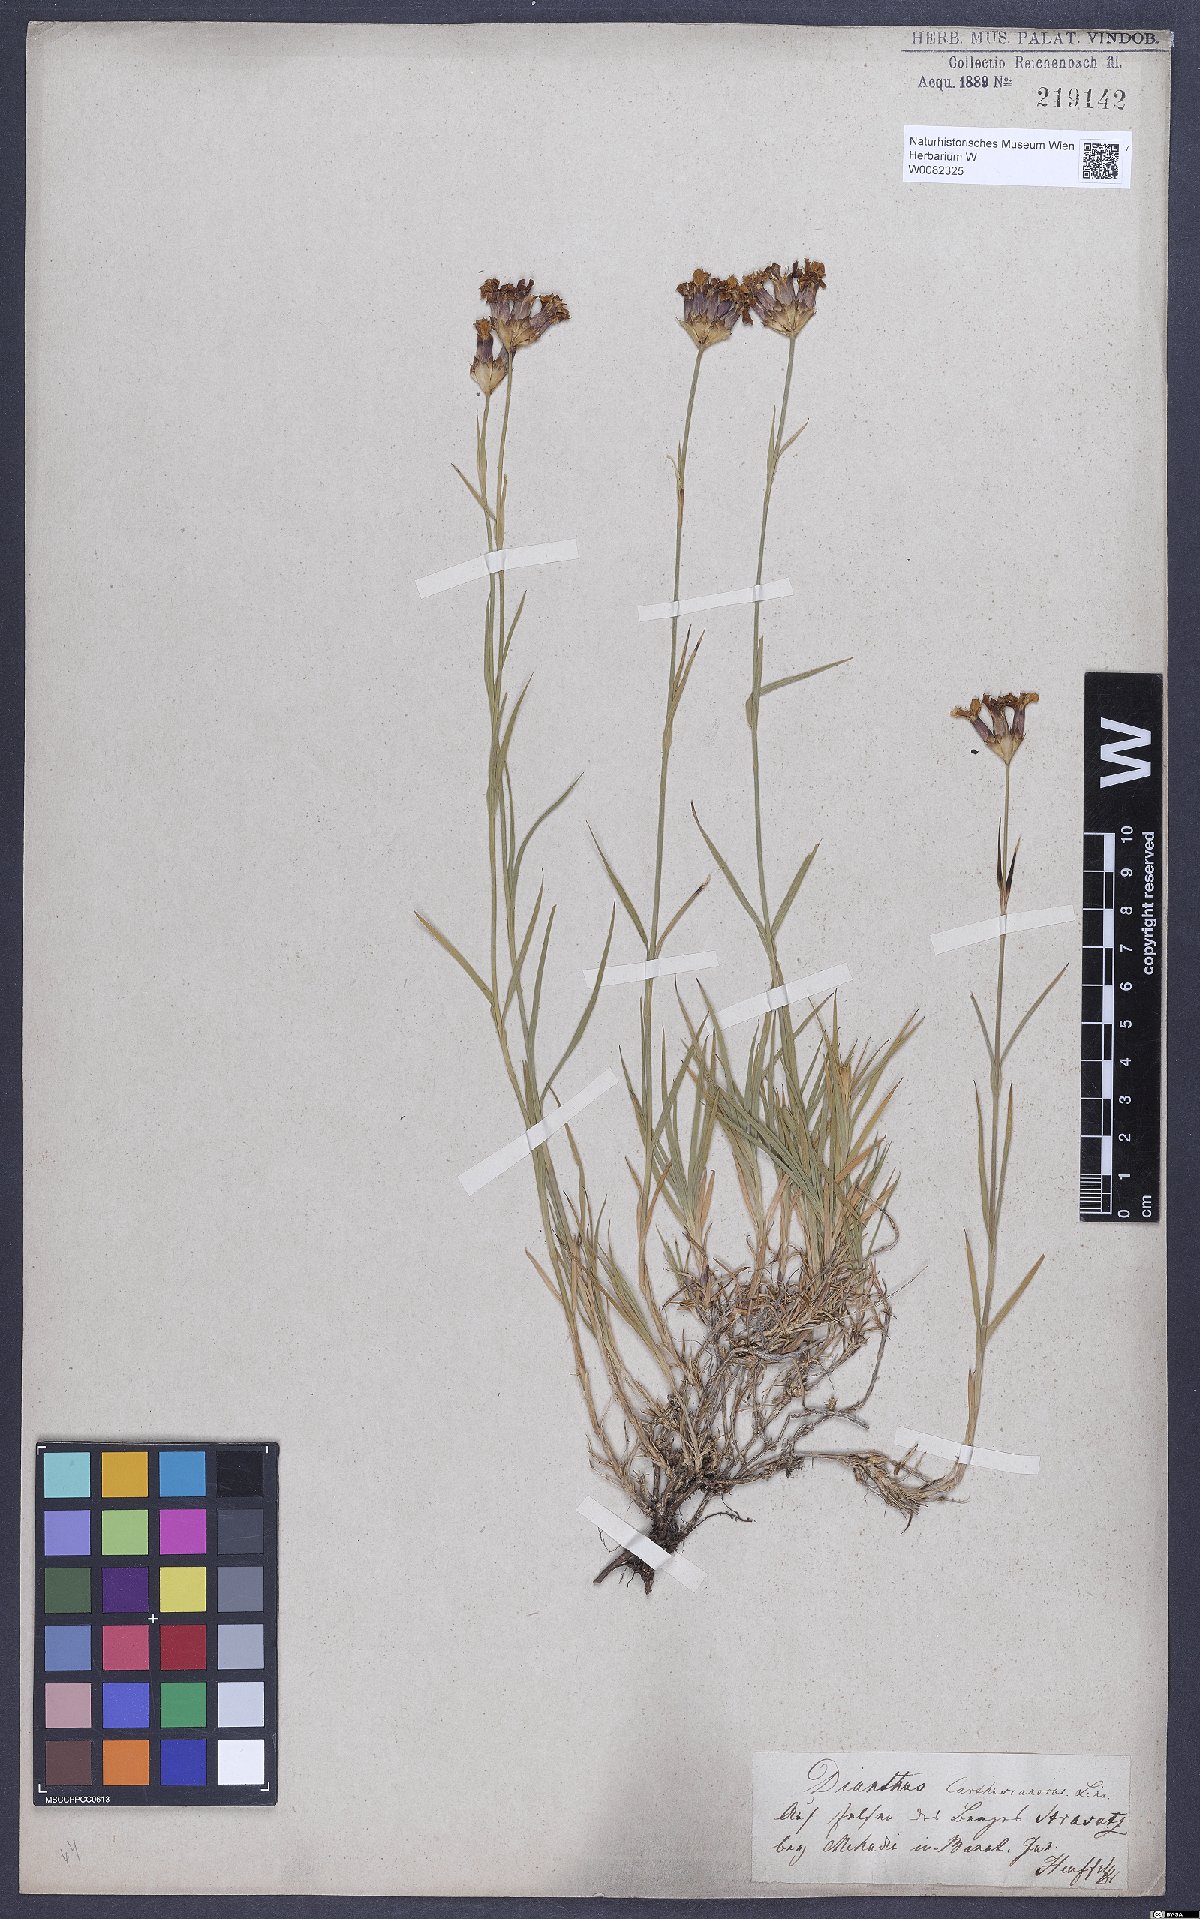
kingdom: Plantae
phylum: Tracheophyta
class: Magnoliopsida
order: Caryophyllales
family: Caryophyllaceae
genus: Dianthus
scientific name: Dianthus carthusianorum
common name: Carthusian pink
